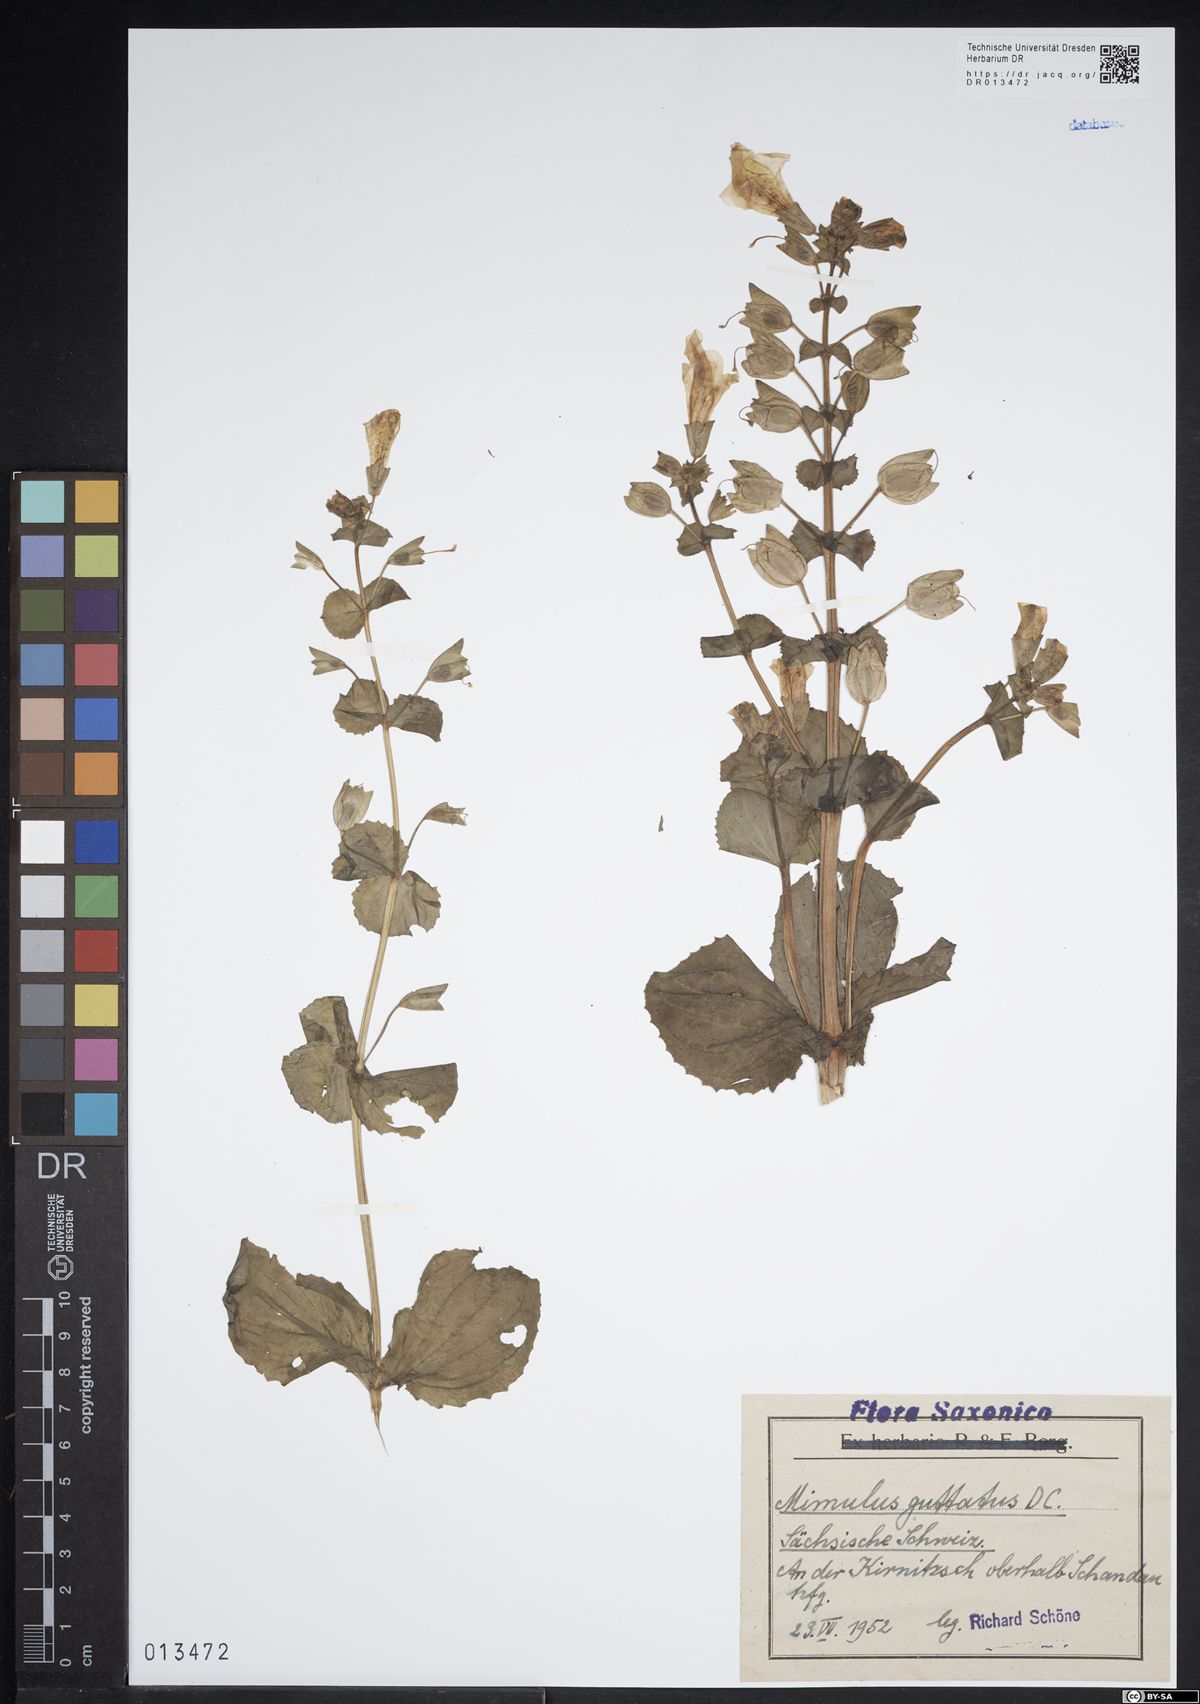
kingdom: Plantae
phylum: Tracheophyta
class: Magnoliopsida
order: Lamiales
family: Phrymaceae
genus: Erythranthe
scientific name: Erythranthe guttata
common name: Monkeyflower
